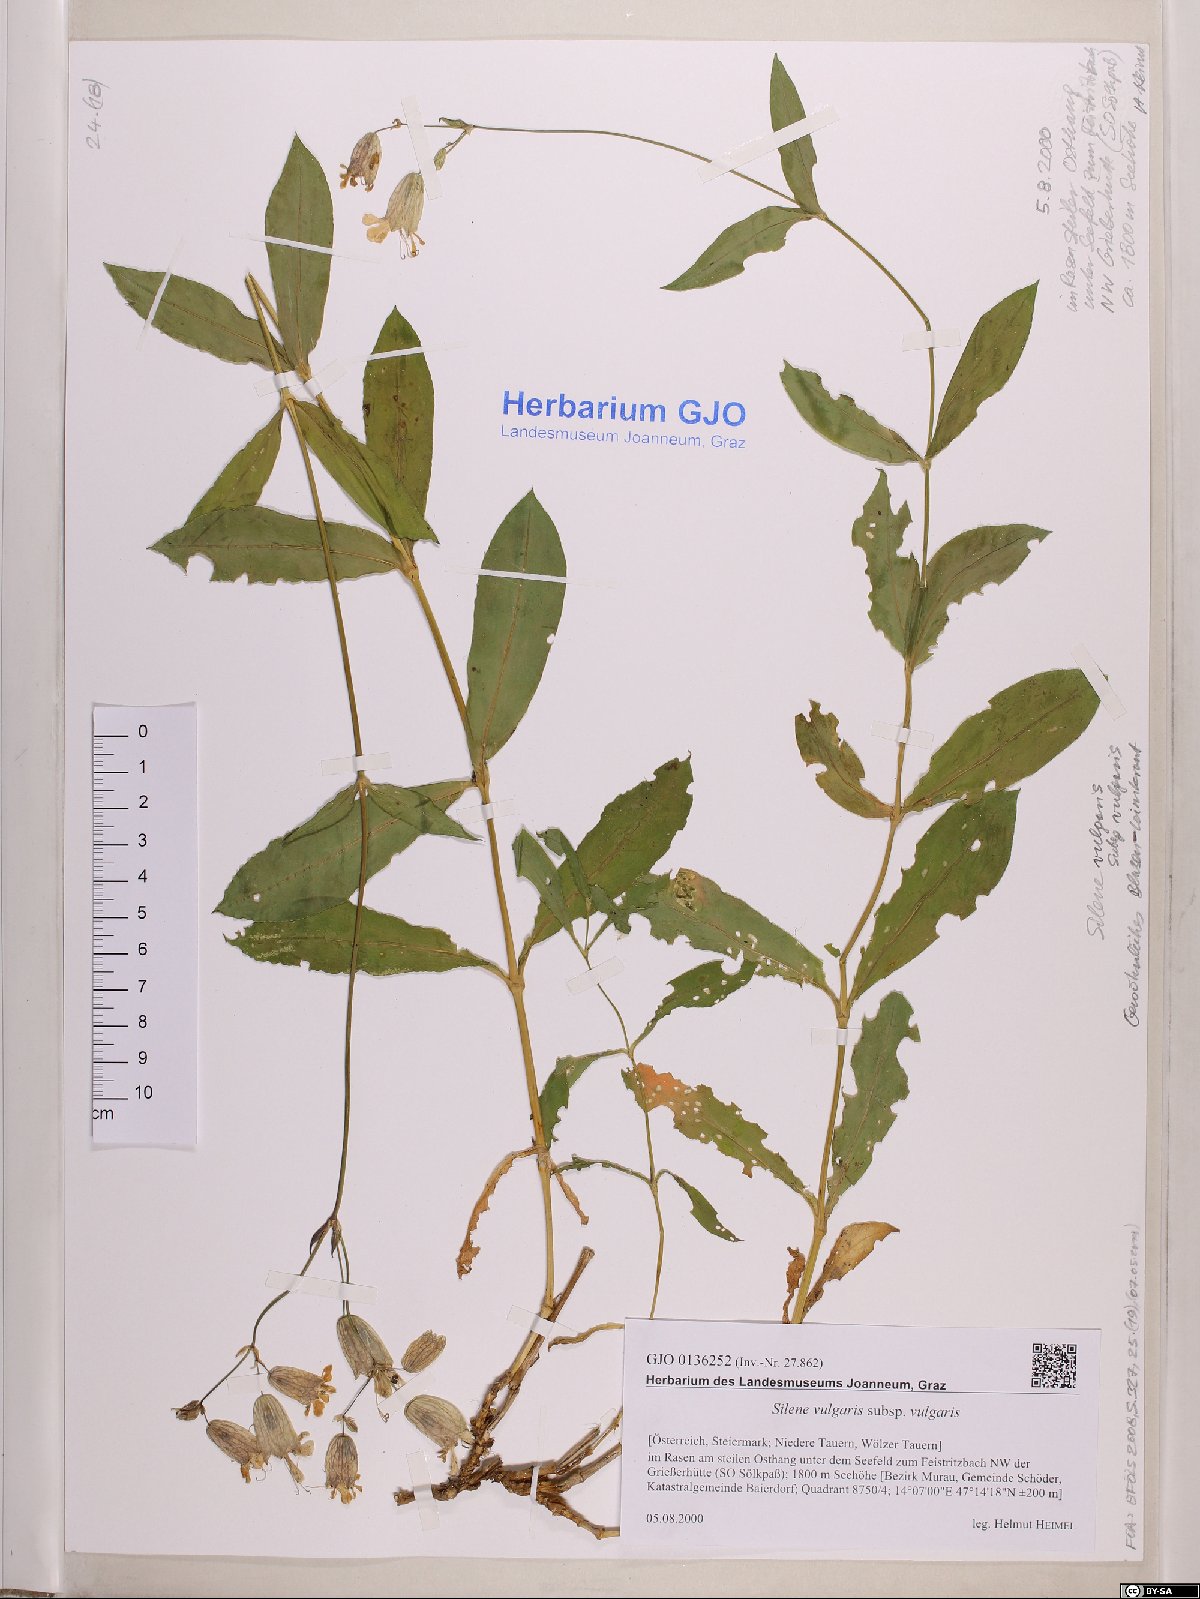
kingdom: Plantae
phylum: Tracheophyta
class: Magnoliopsida
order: Caryophyllales
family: Caryophyllaceae
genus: Silene
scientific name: Silene vulgaris
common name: Bladder campion
